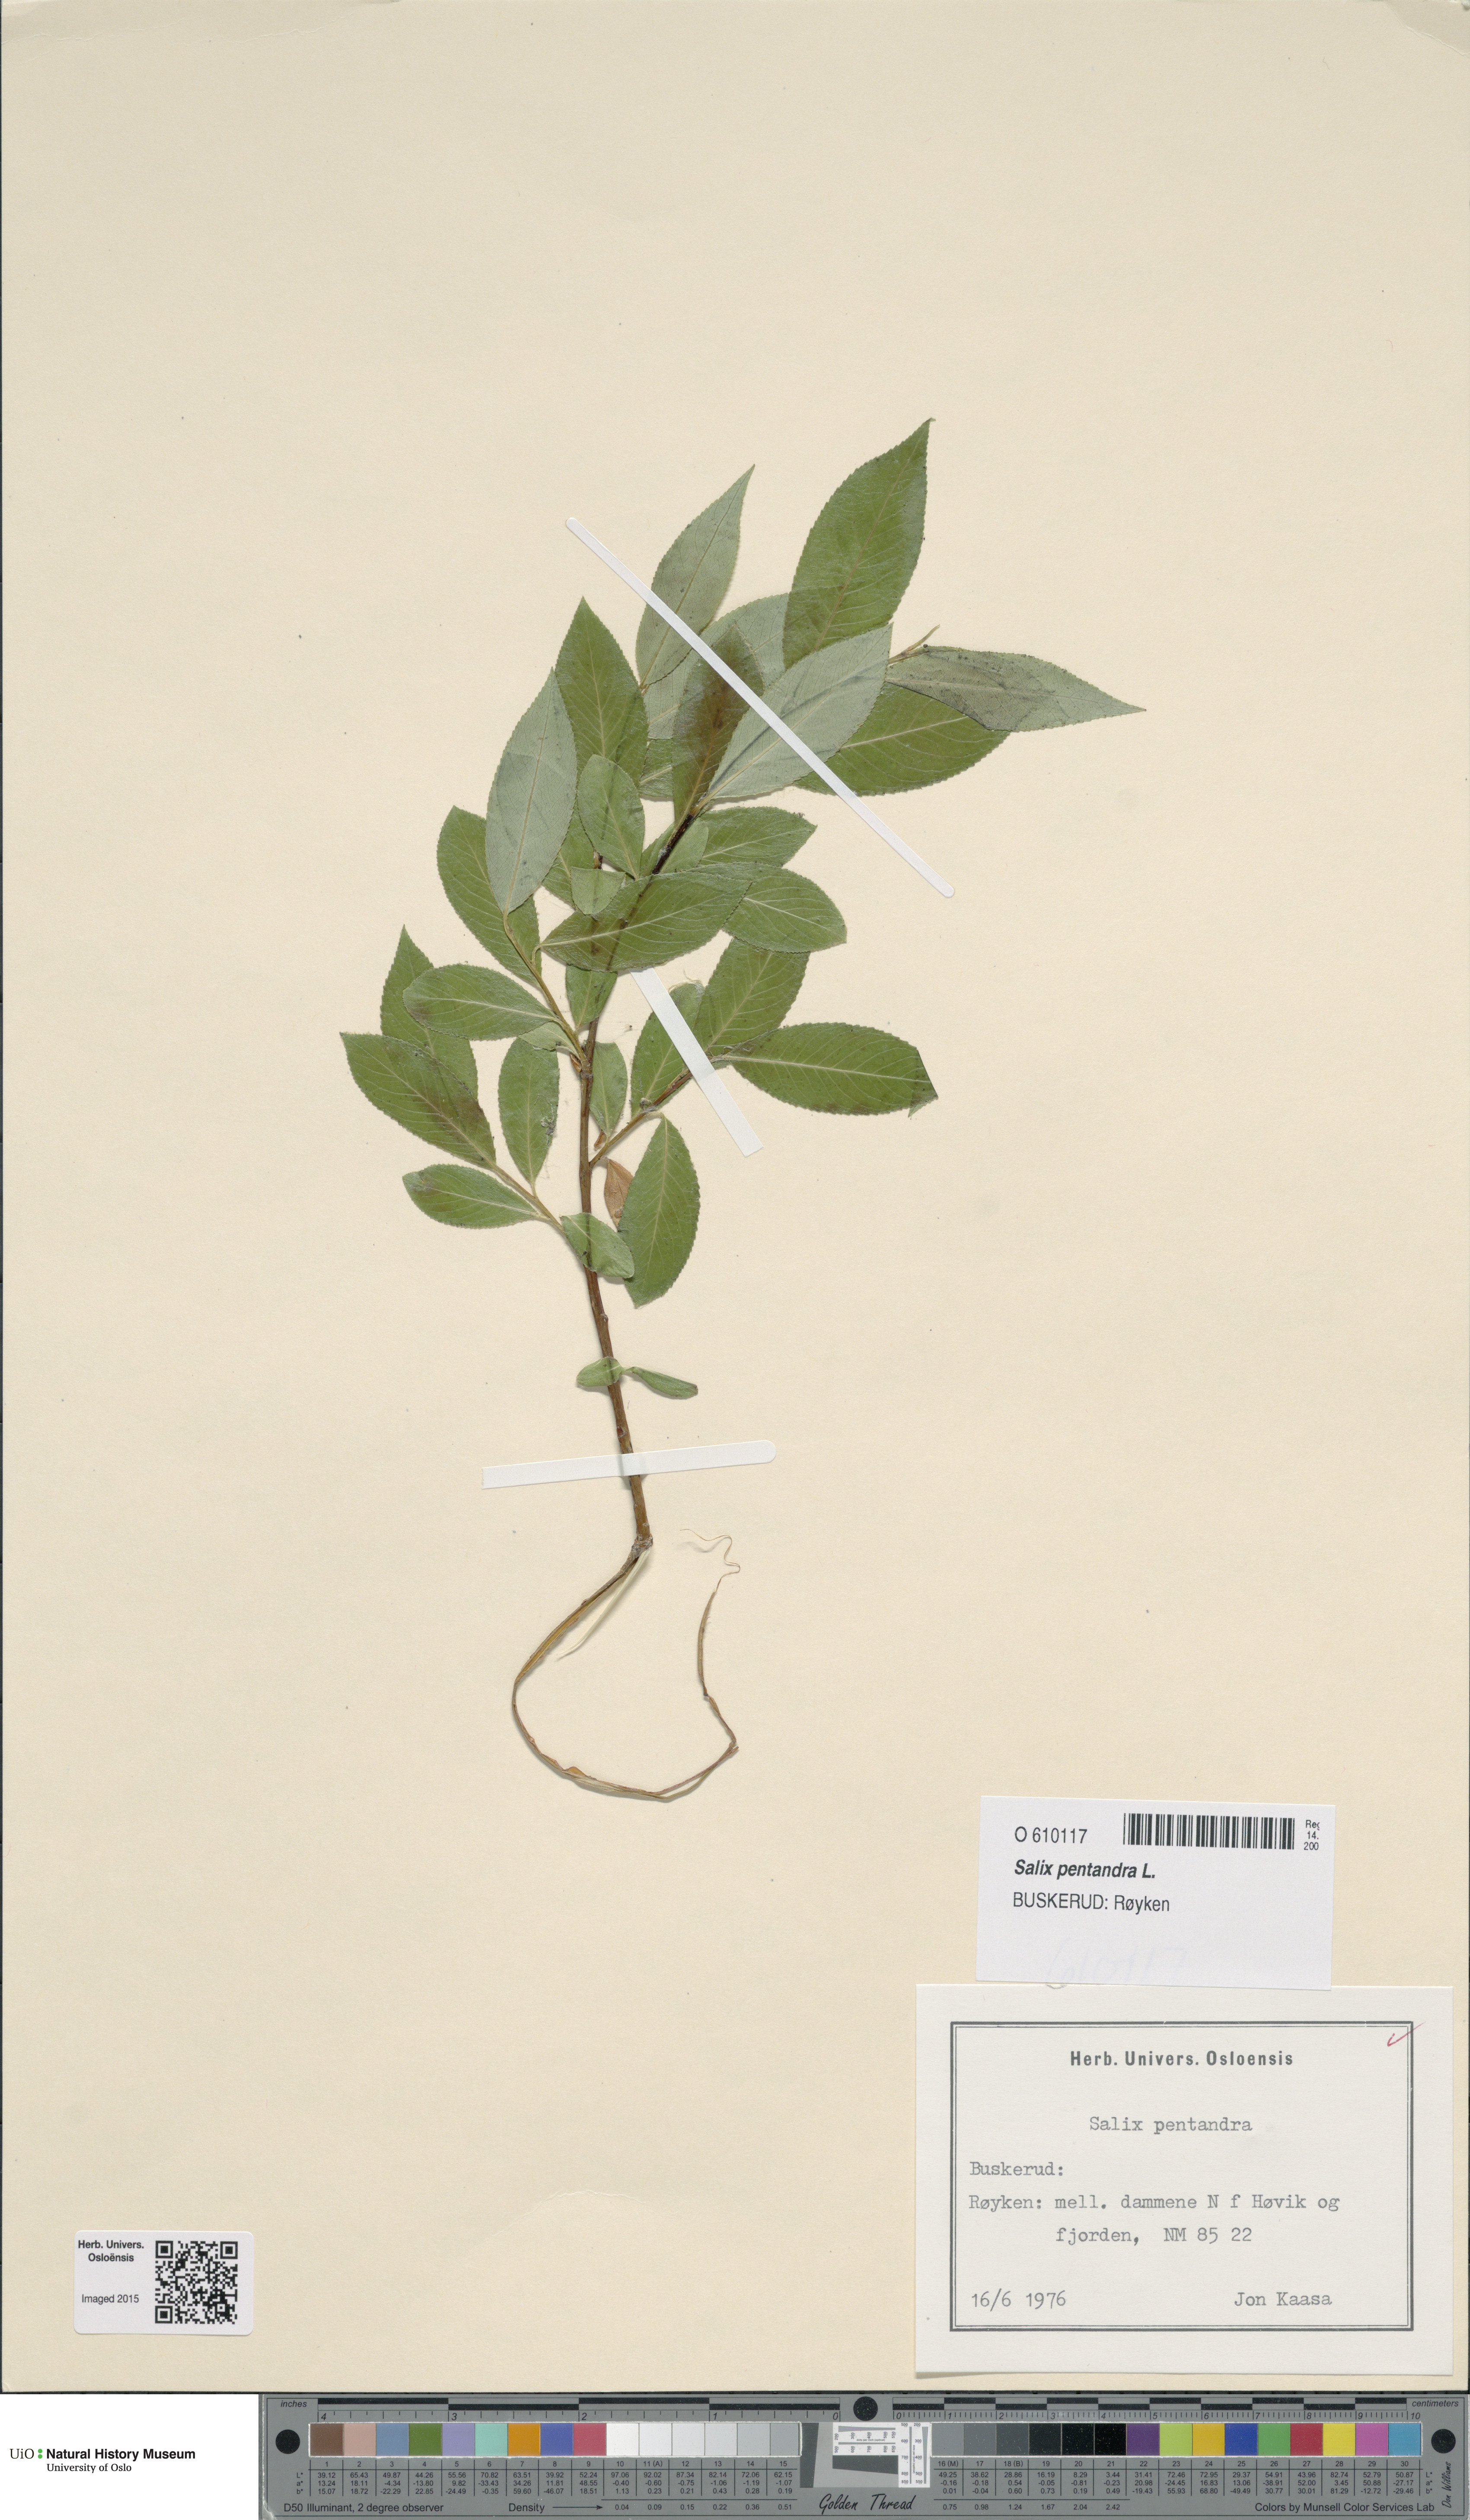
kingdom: Plantae
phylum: Tracheophyta
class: Magnoliopsida
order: Malpighiales
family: Salicaceae
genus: Salix
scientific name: Salix pentandra
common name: Bay willow
